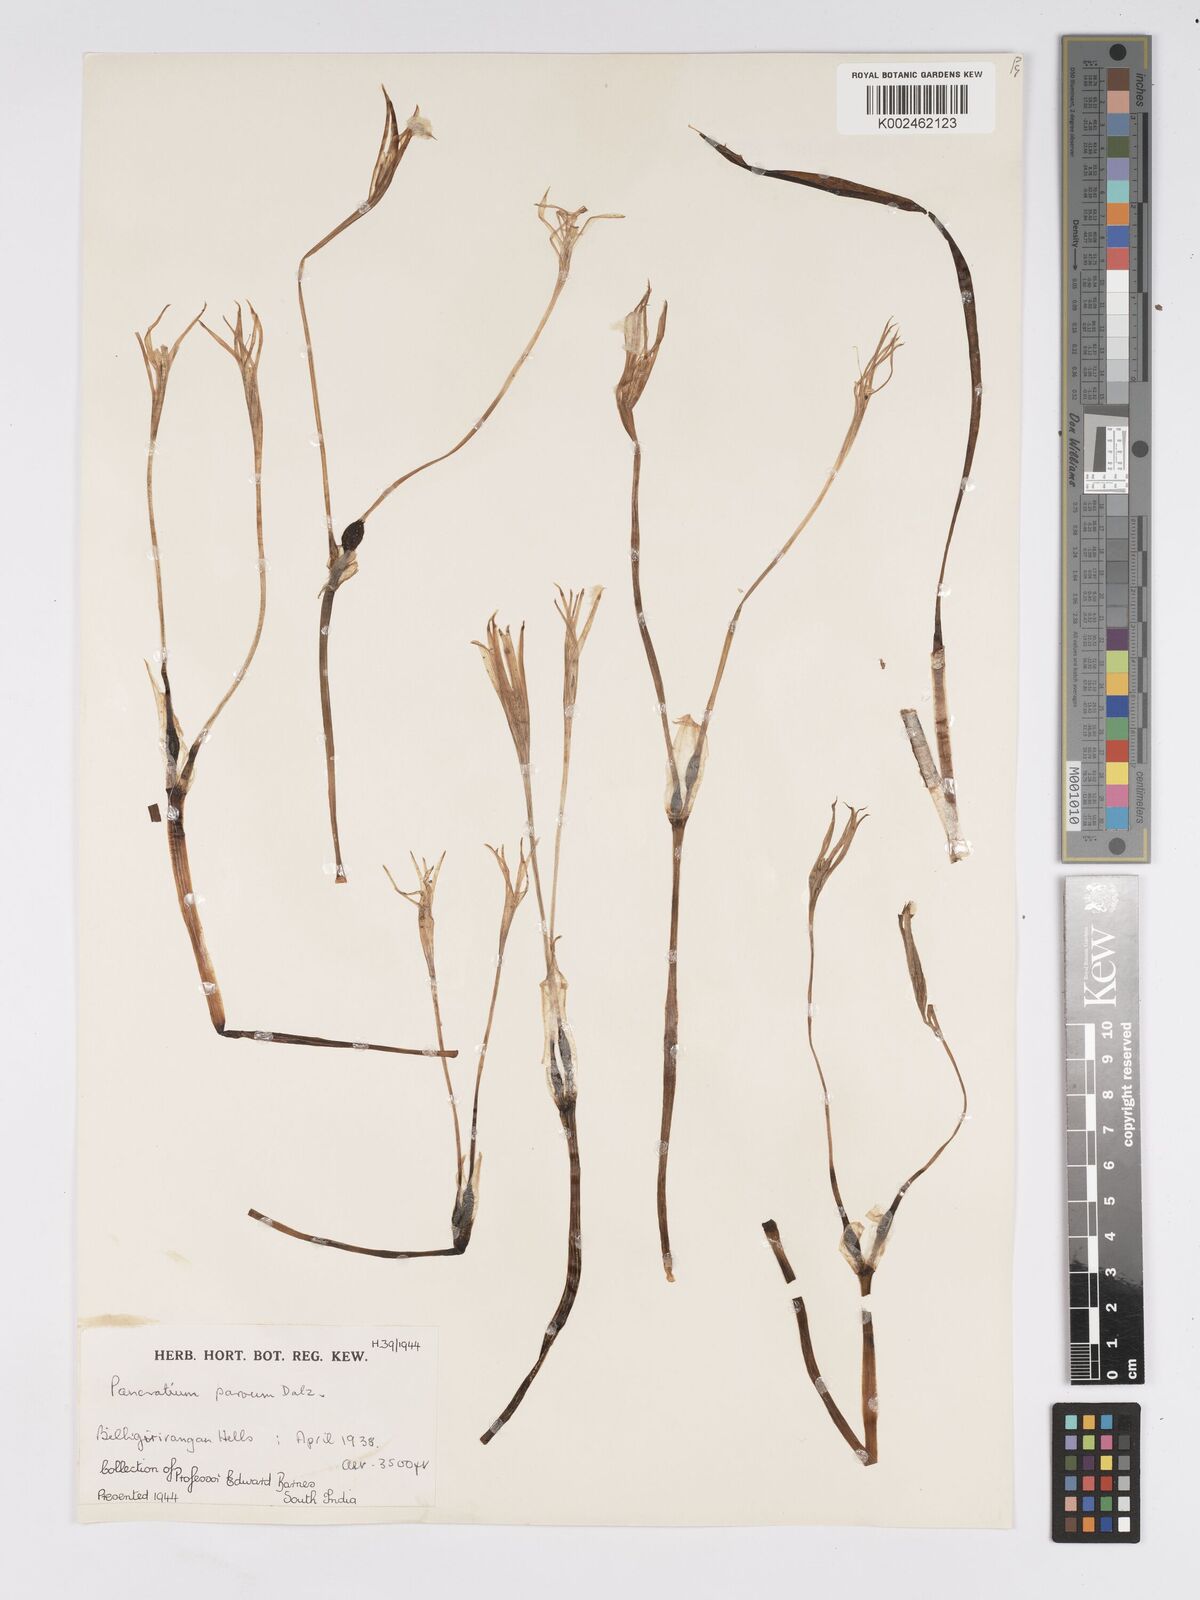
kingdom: Plantae
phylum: Tracheophyta
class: Liliopsida
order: Asparagales
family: Amaryllidaceae
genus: Pancratium
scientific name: Pancratium parvum
